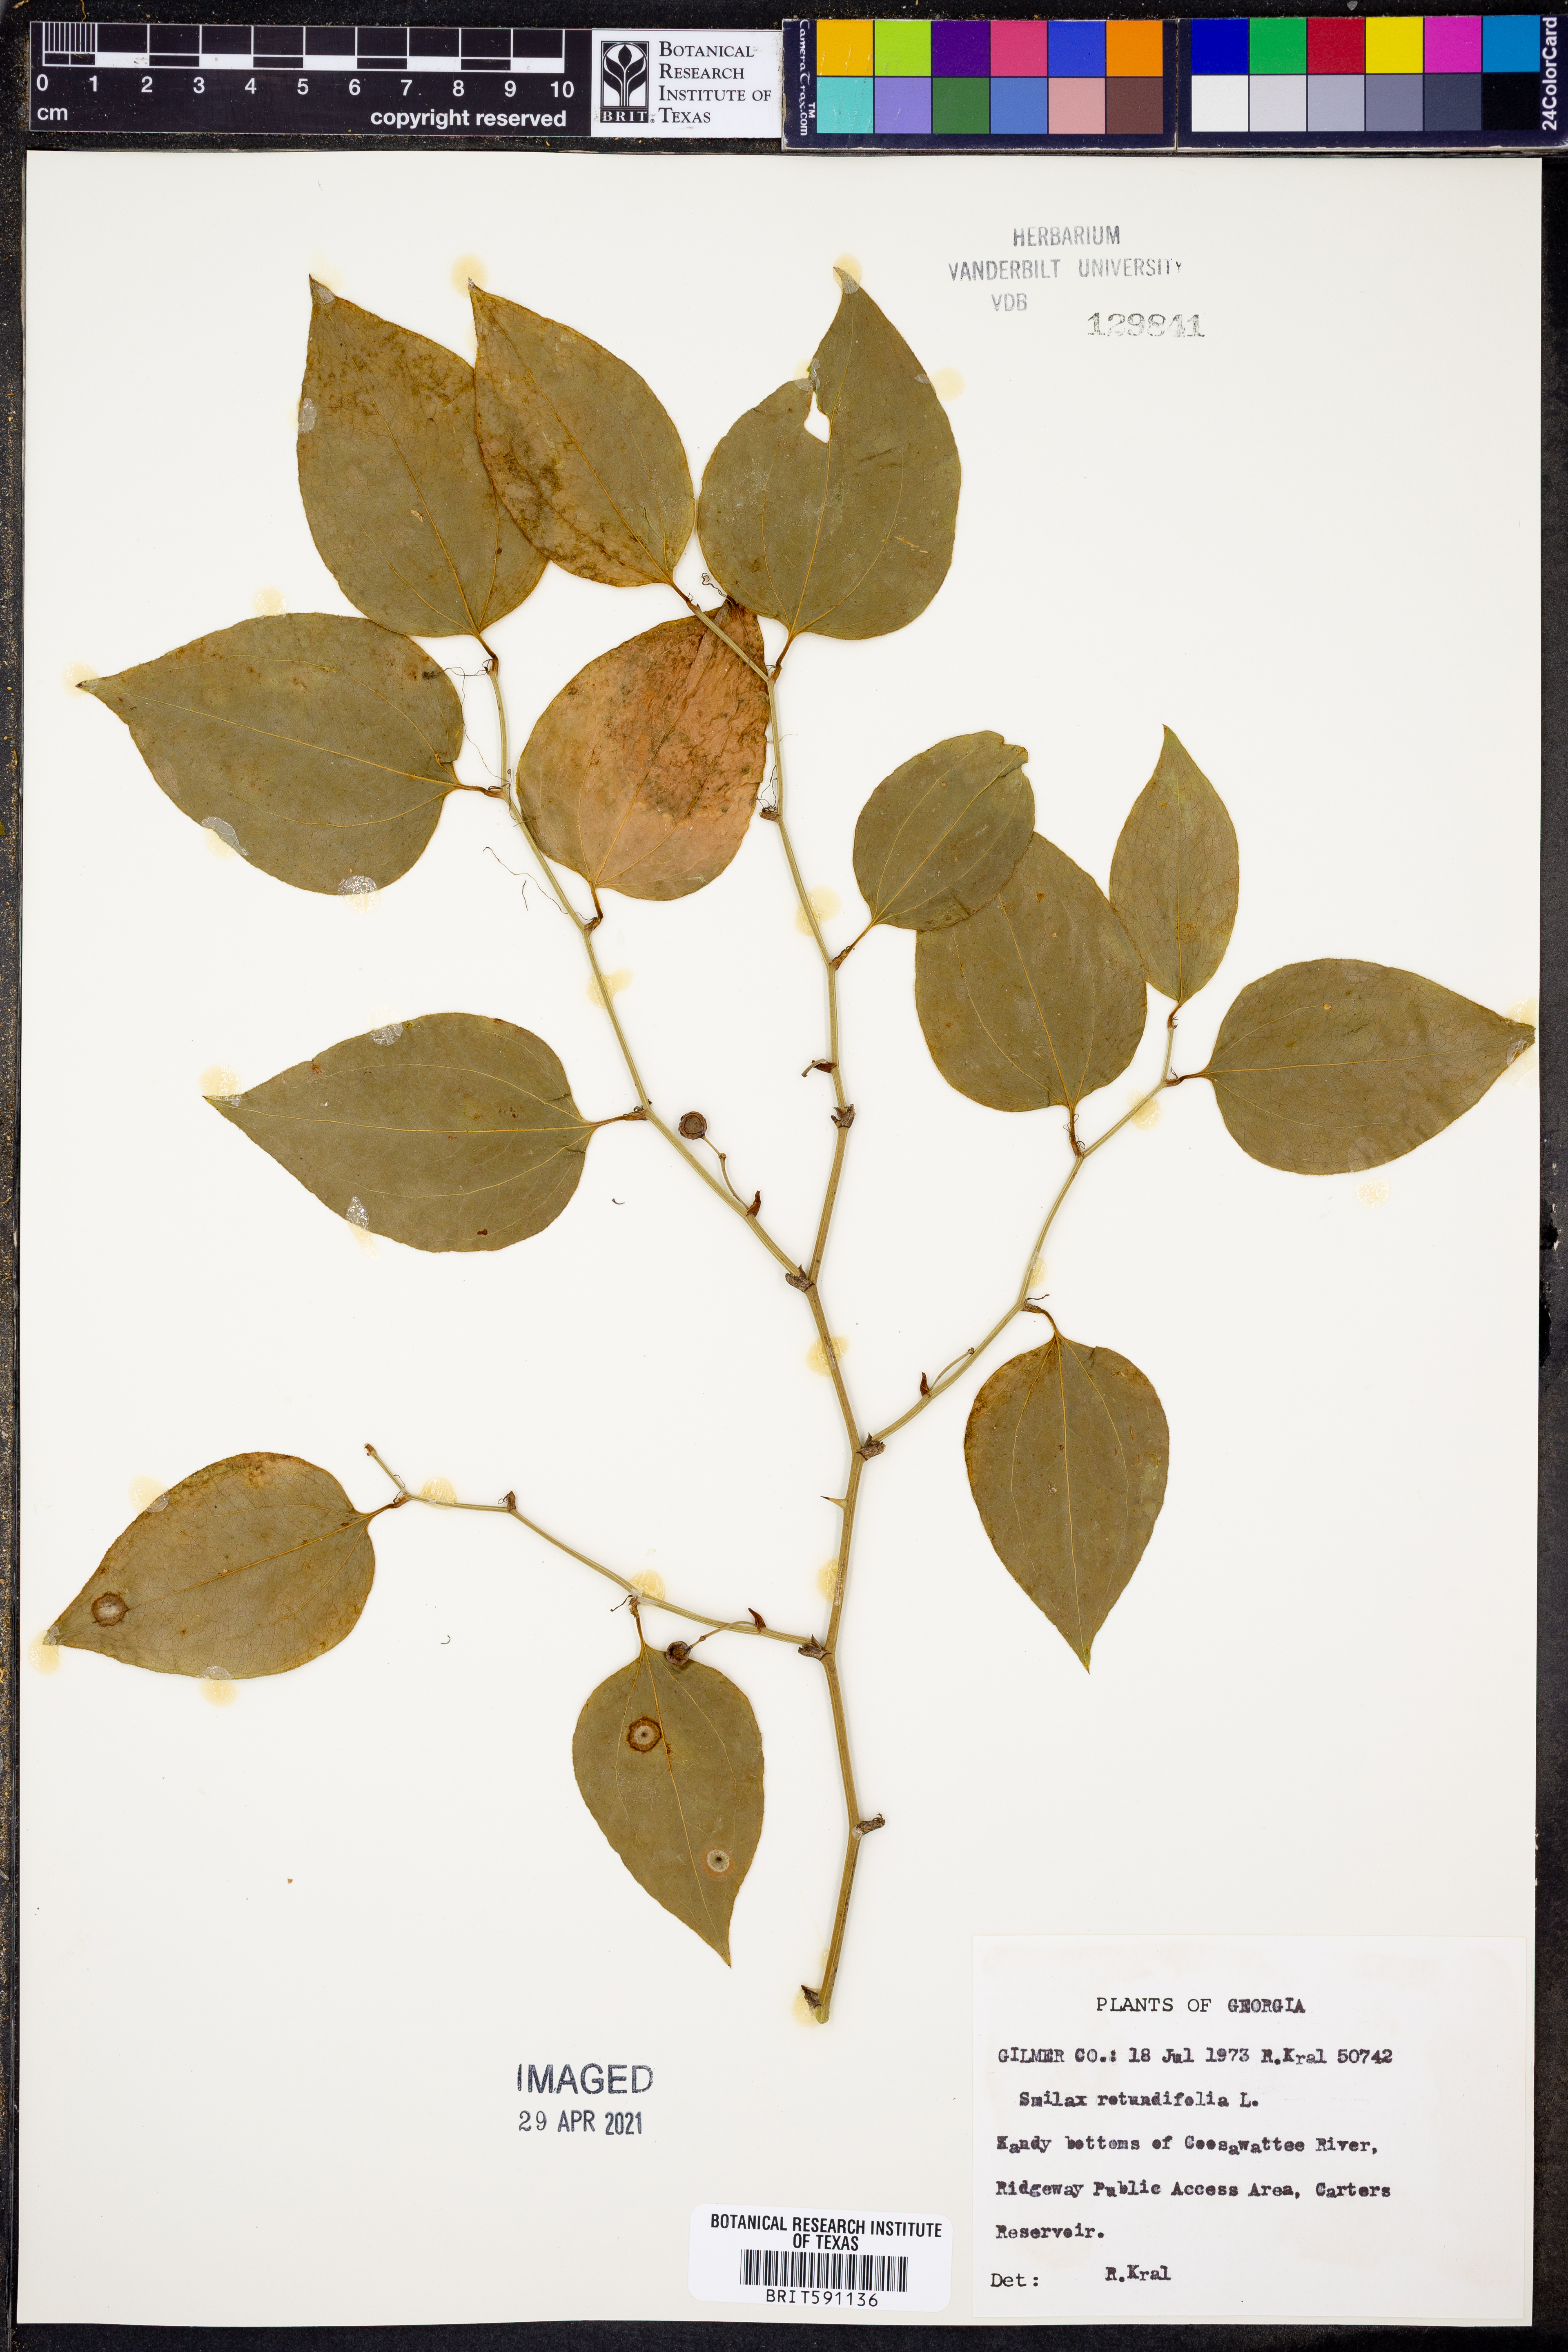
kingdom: Plantae
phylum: Tracheophyta
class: Liliopsida
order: Liliales
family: Smilacaceae
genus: Smilax
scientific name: Smilax rotundifolia
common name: Bullbriar
